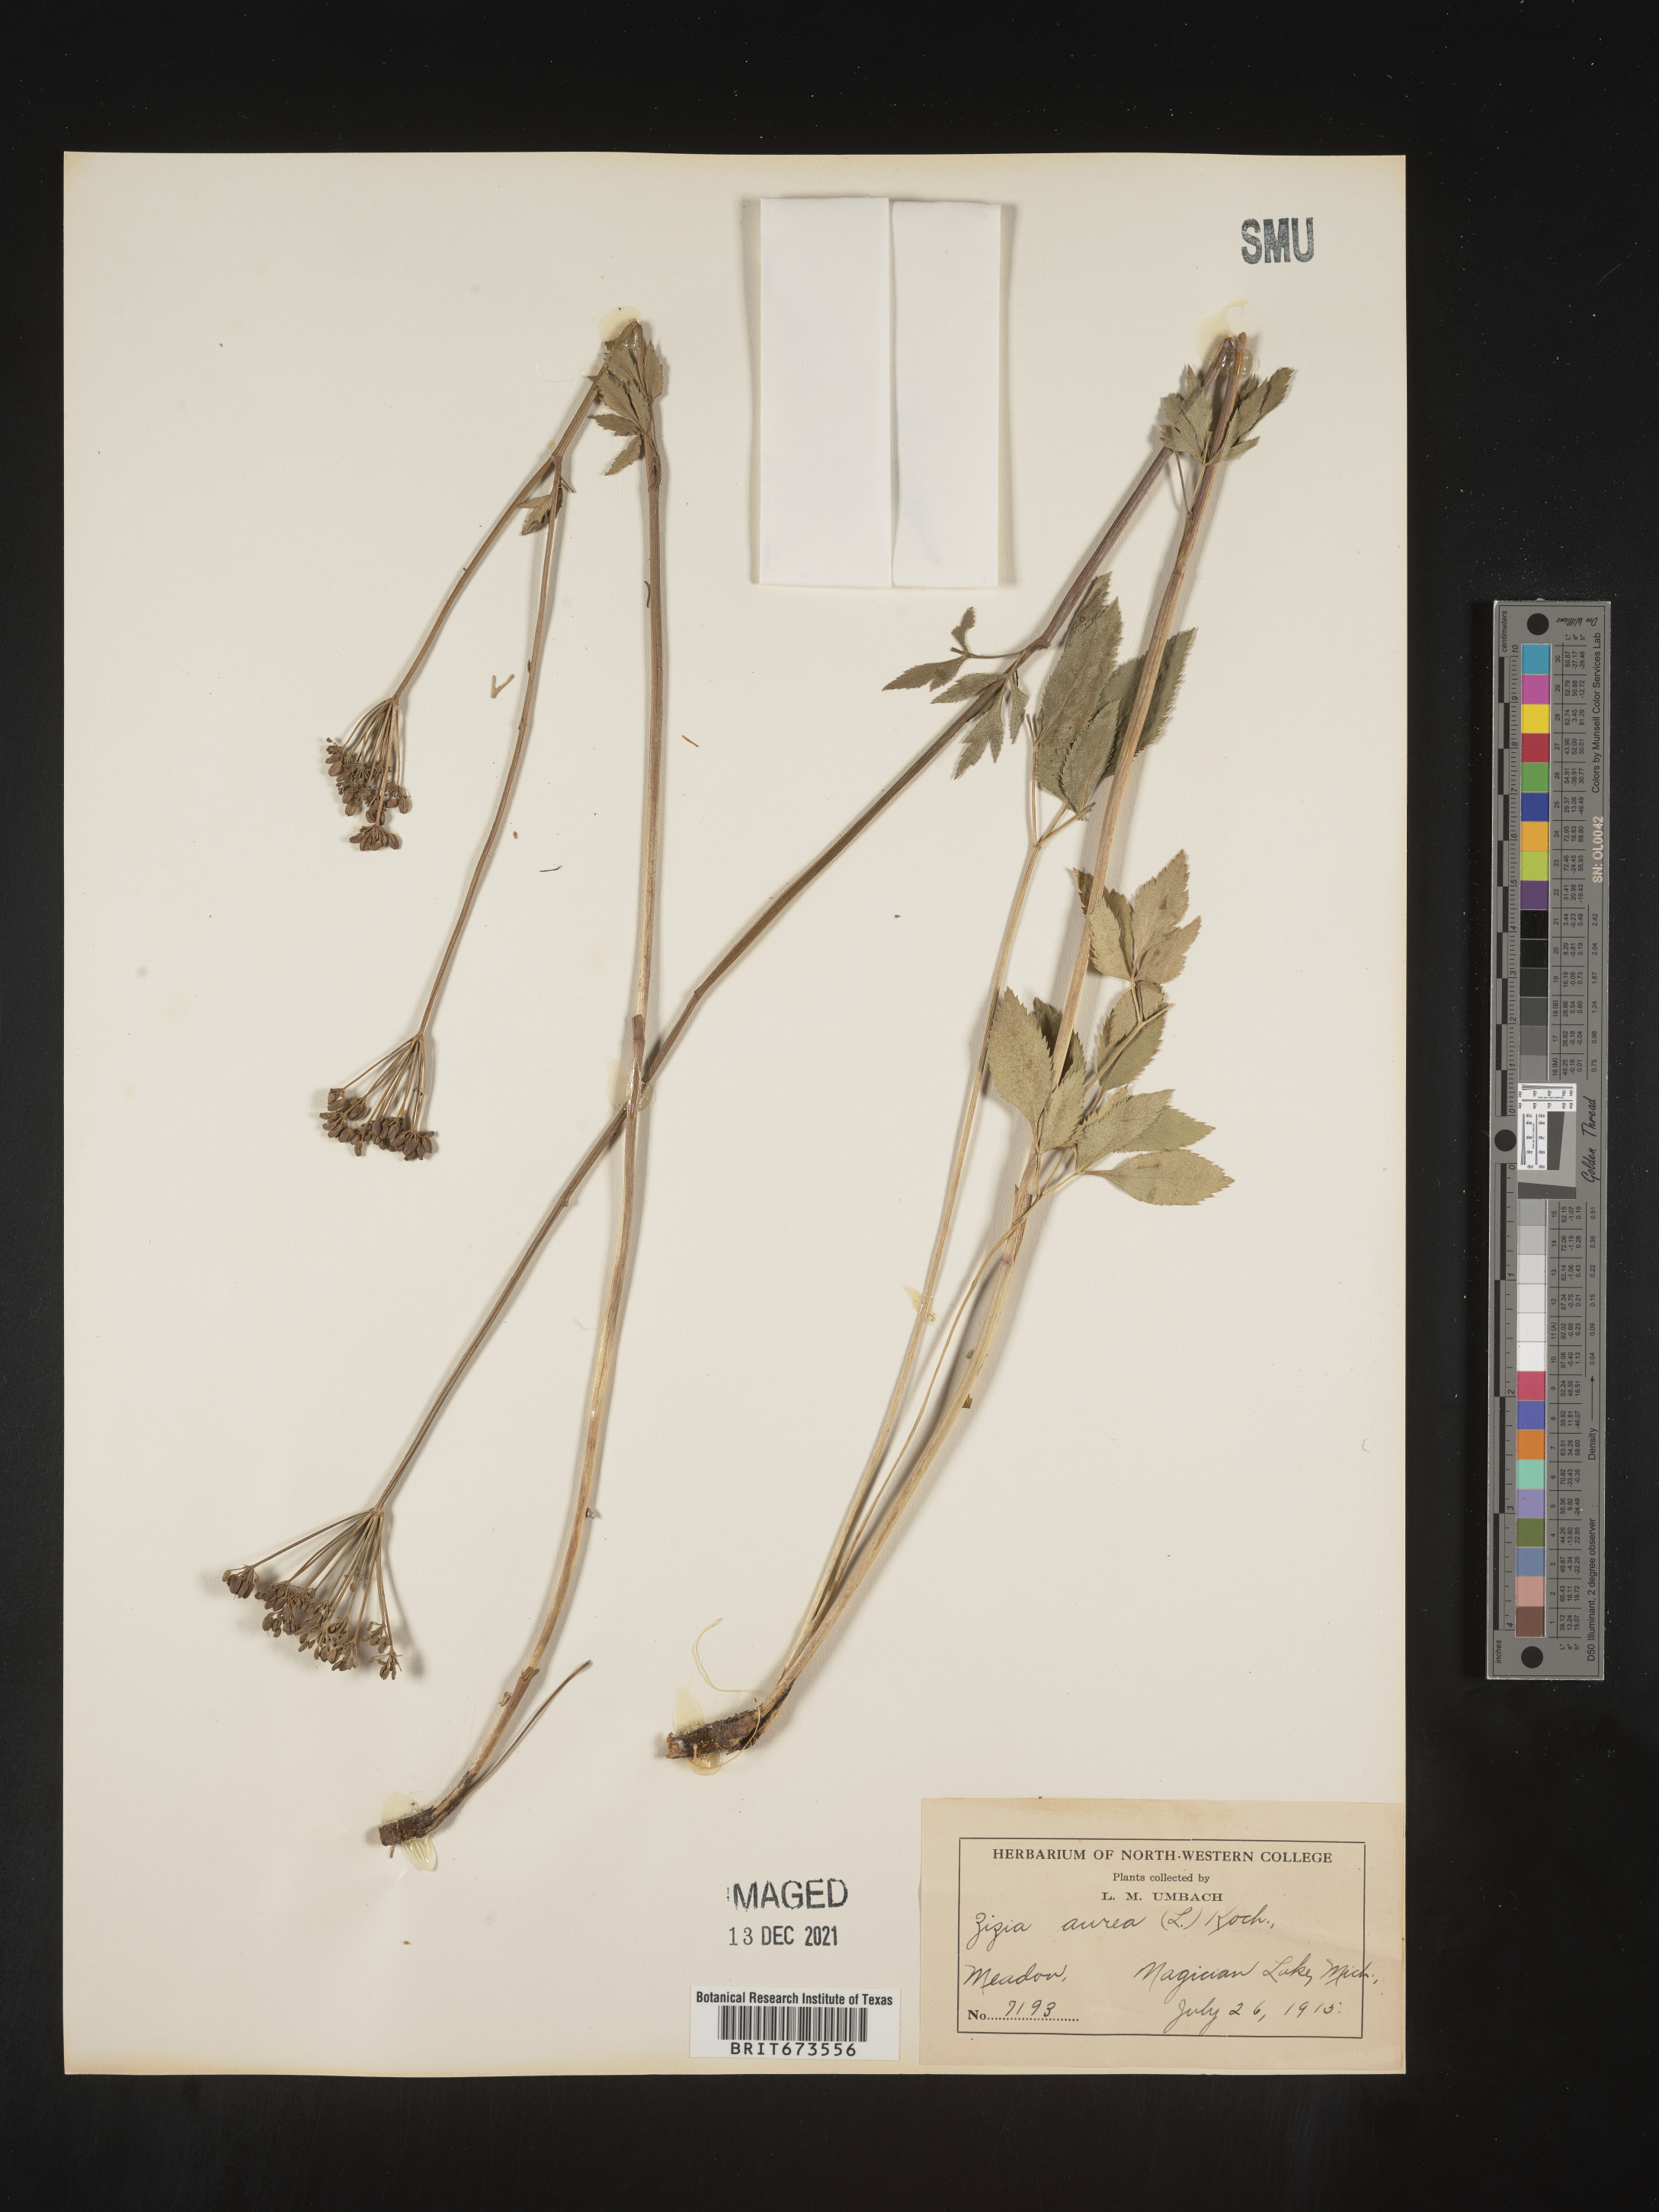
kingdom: Plantae
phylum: Tracheophyta
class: Magnoliopsida
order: Apiales
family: Apiaceae
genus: Zizia
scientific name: Zizia aurea
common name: Golden alexanders
